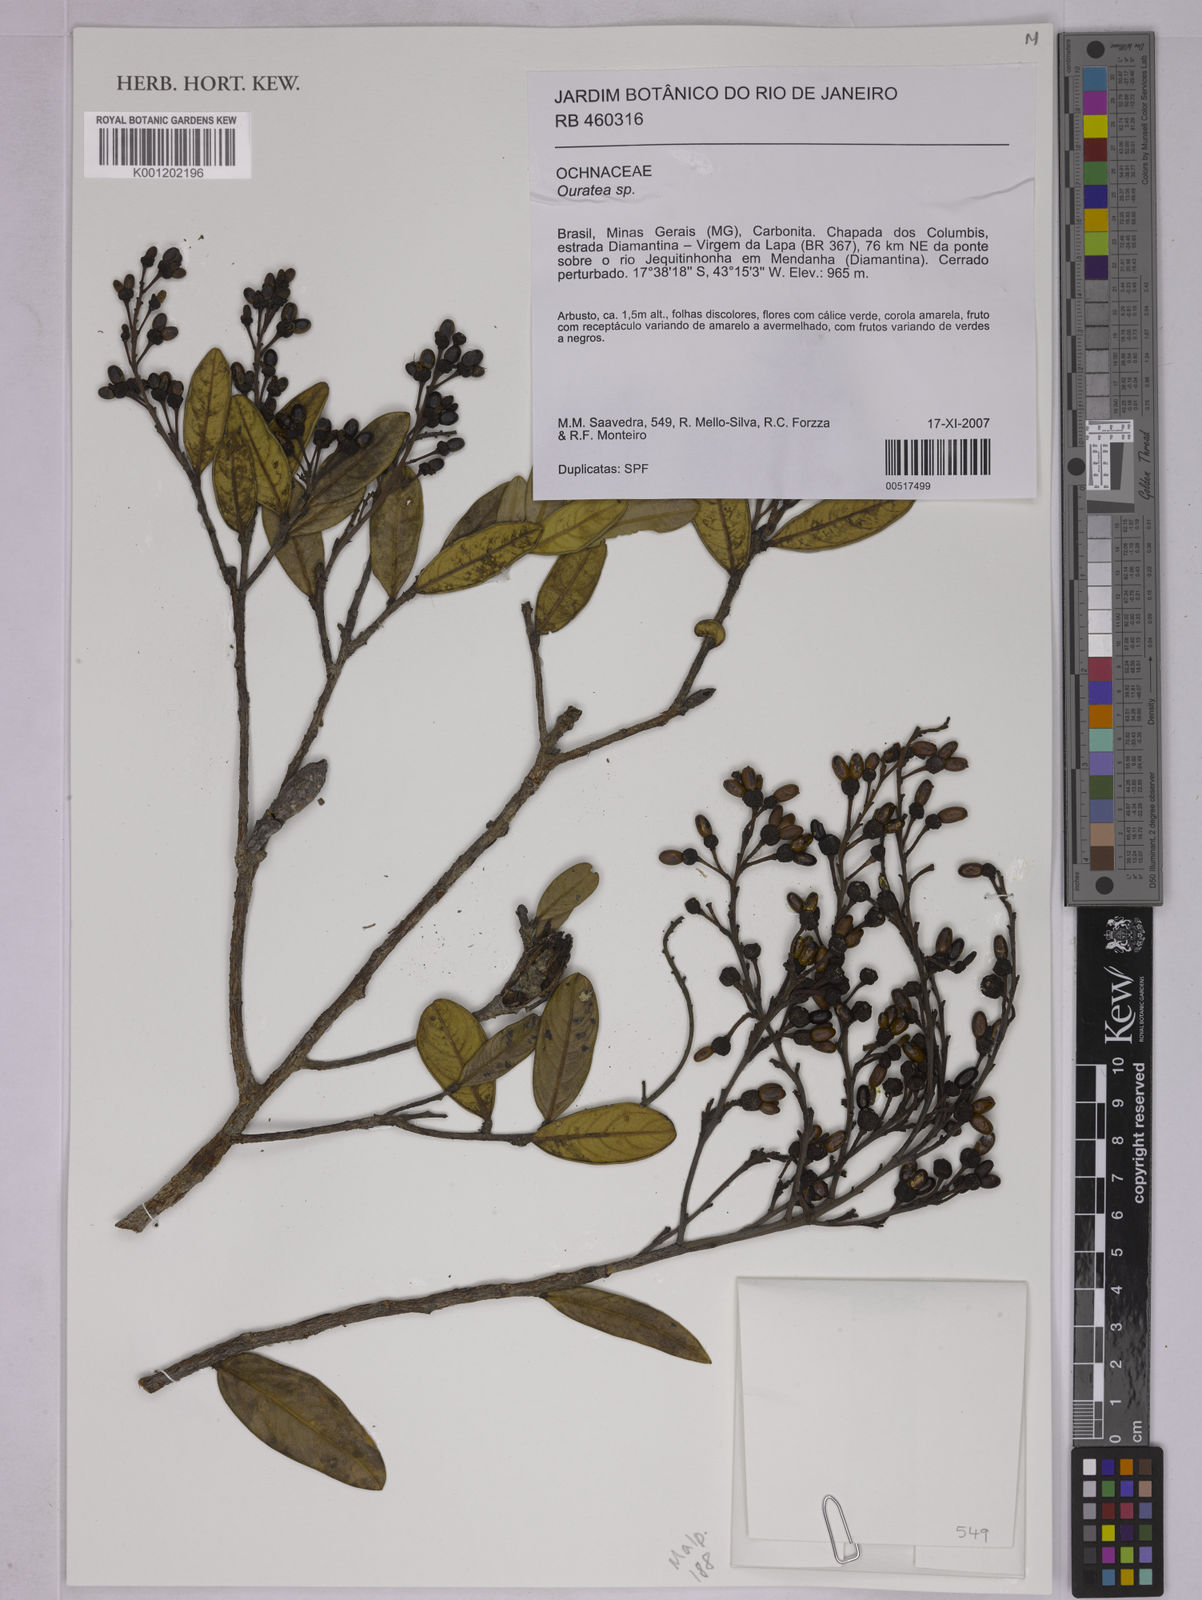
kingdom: Plantae
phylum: Tracheophyta
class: Magnoliopsida
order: Malpighiales
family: Ochnaceae
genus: Ouratea
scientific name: Ouratea
